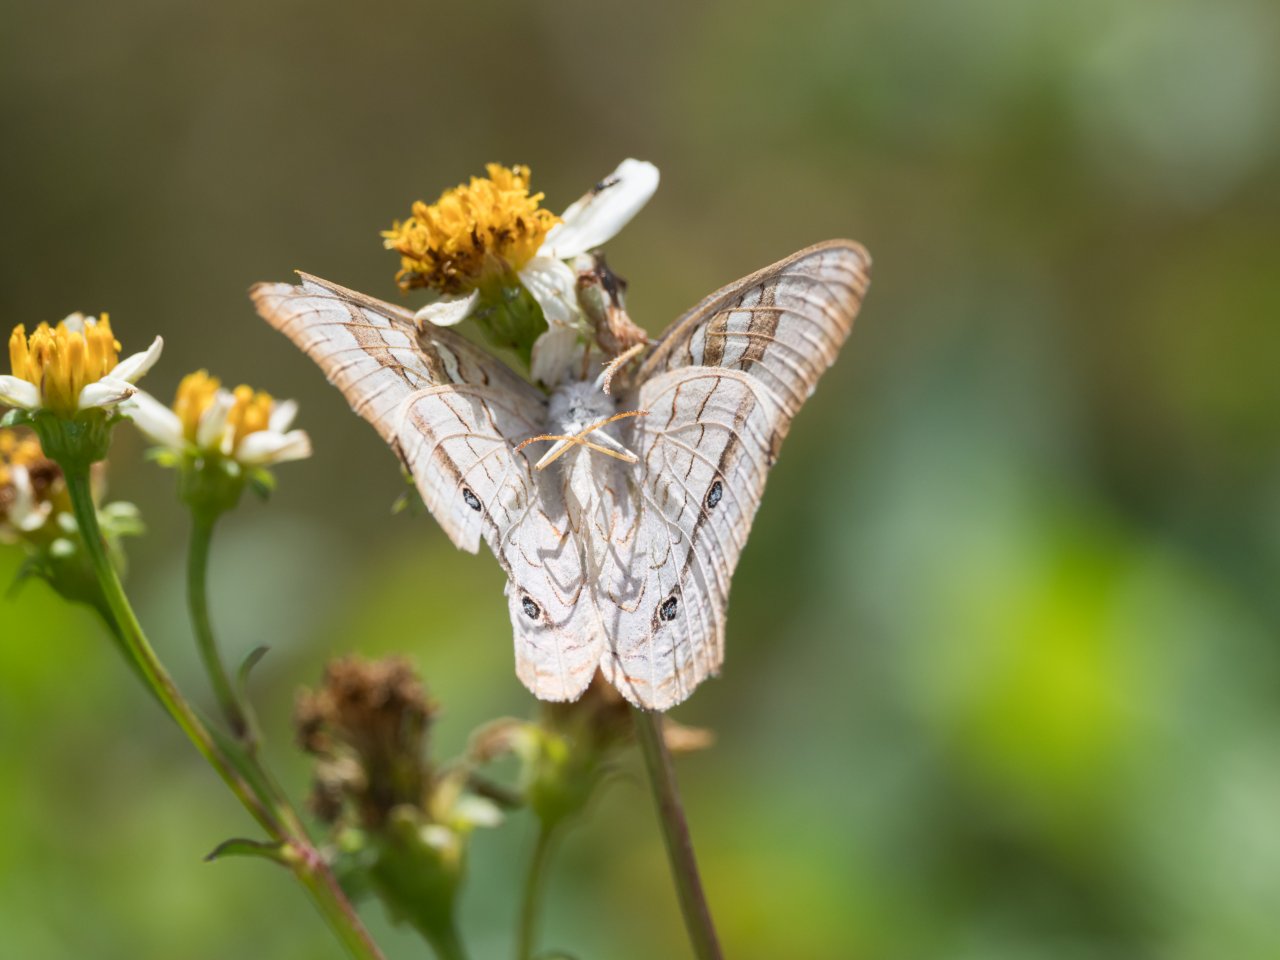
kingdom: Animalia
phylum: Arthropoda
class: Insecta
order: Lepidoptera
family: Nymphalidae
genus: Anartia
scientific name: Anartia jatrophae
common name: White Peacock
